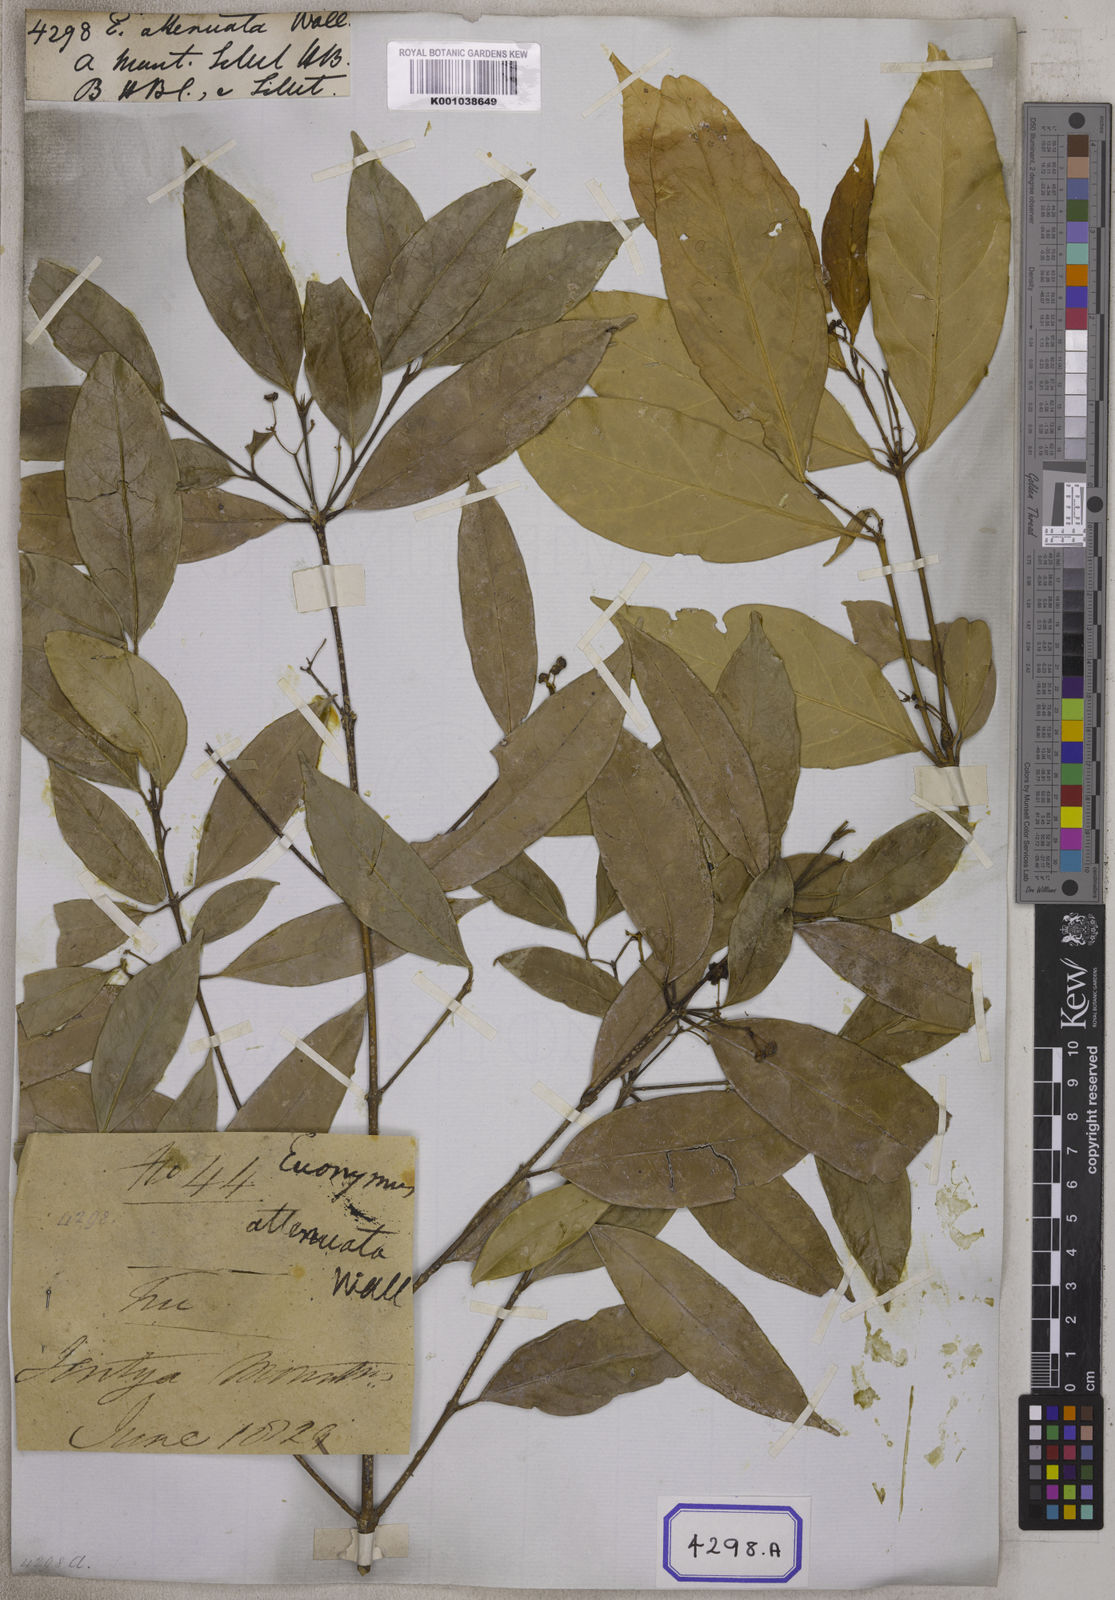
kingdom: Plantae
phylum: Tracheophyta
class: Magnoliopsida
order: Celastrales
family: Celastraceae
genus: Euonymus
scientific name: Euonymus
